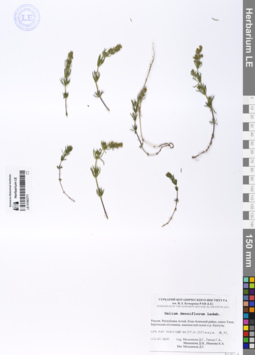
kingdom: Plantae
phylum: Tracheophyta
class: Magnoliopsida
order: Gentianales
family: Rubiaceae
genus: Galium
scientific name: Galium densiflorum
